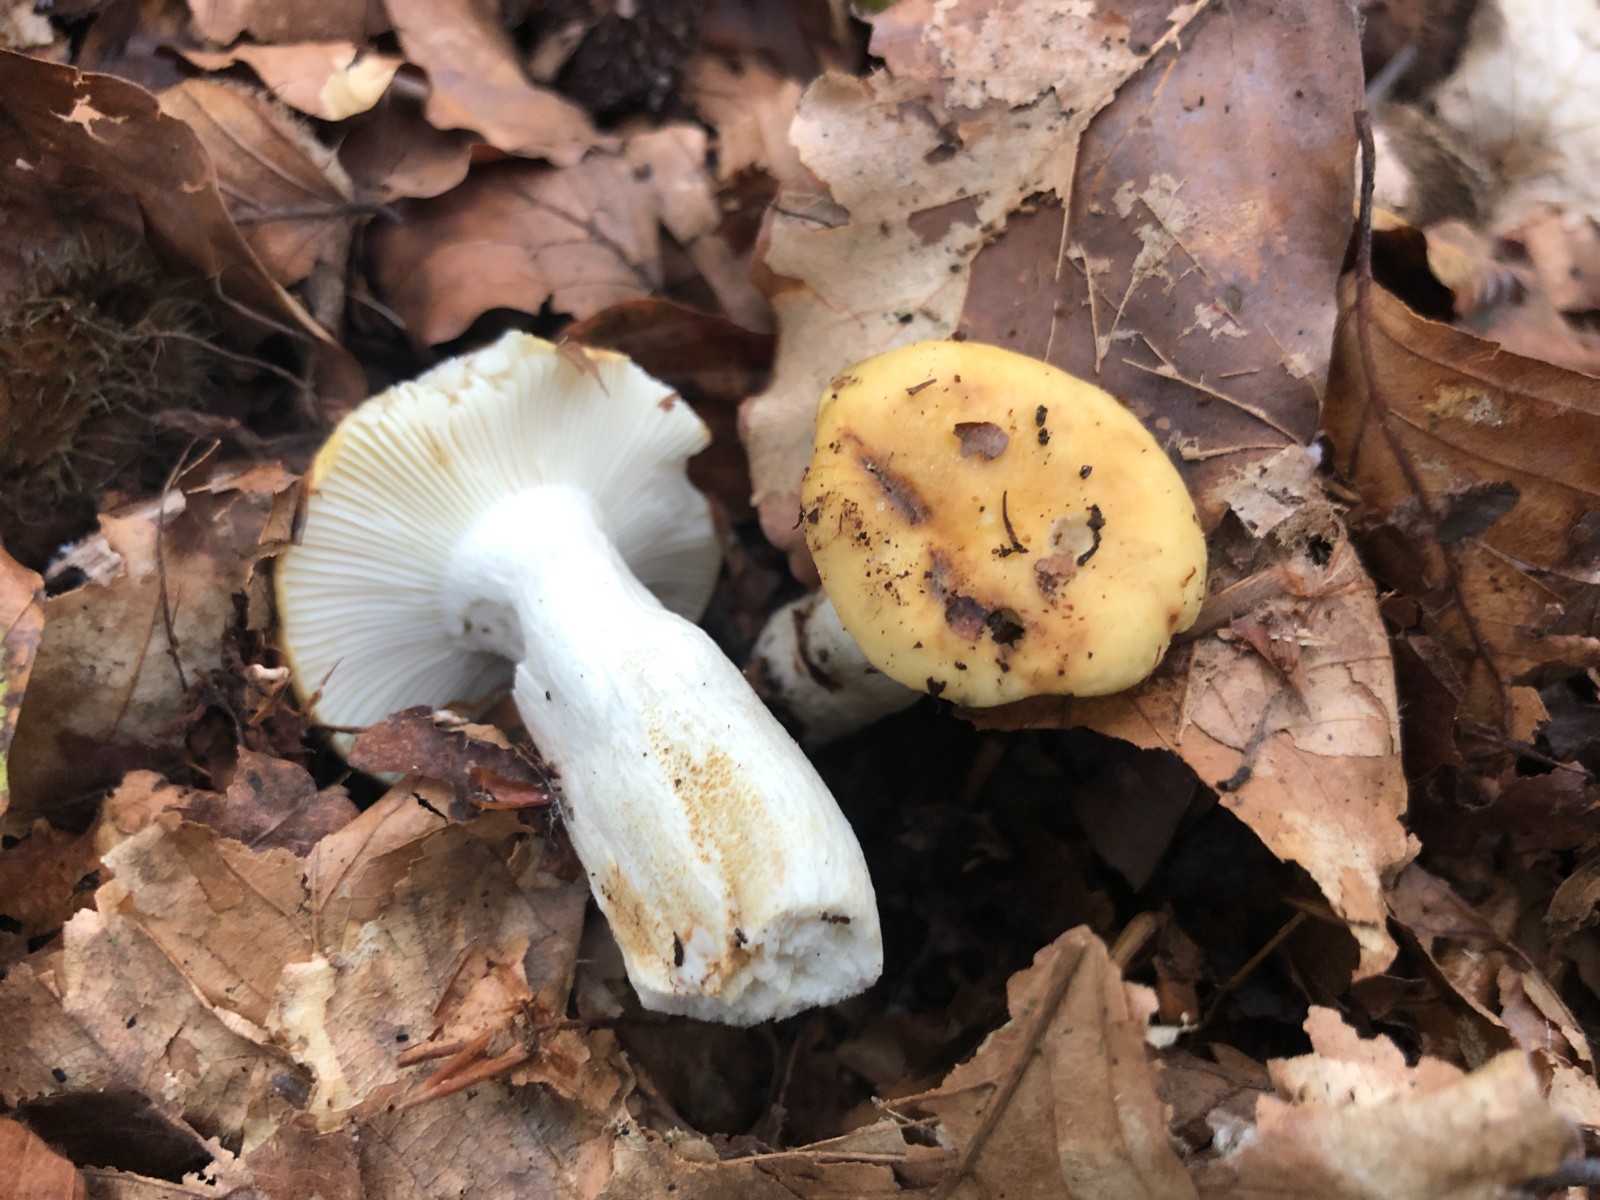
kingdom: Fungi
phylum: Basidiomycota
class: Agaricomycetes
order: Russulales
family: Russulaceae
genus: Russula
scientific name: Russula ochroleuca
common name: okkergul skørhat
